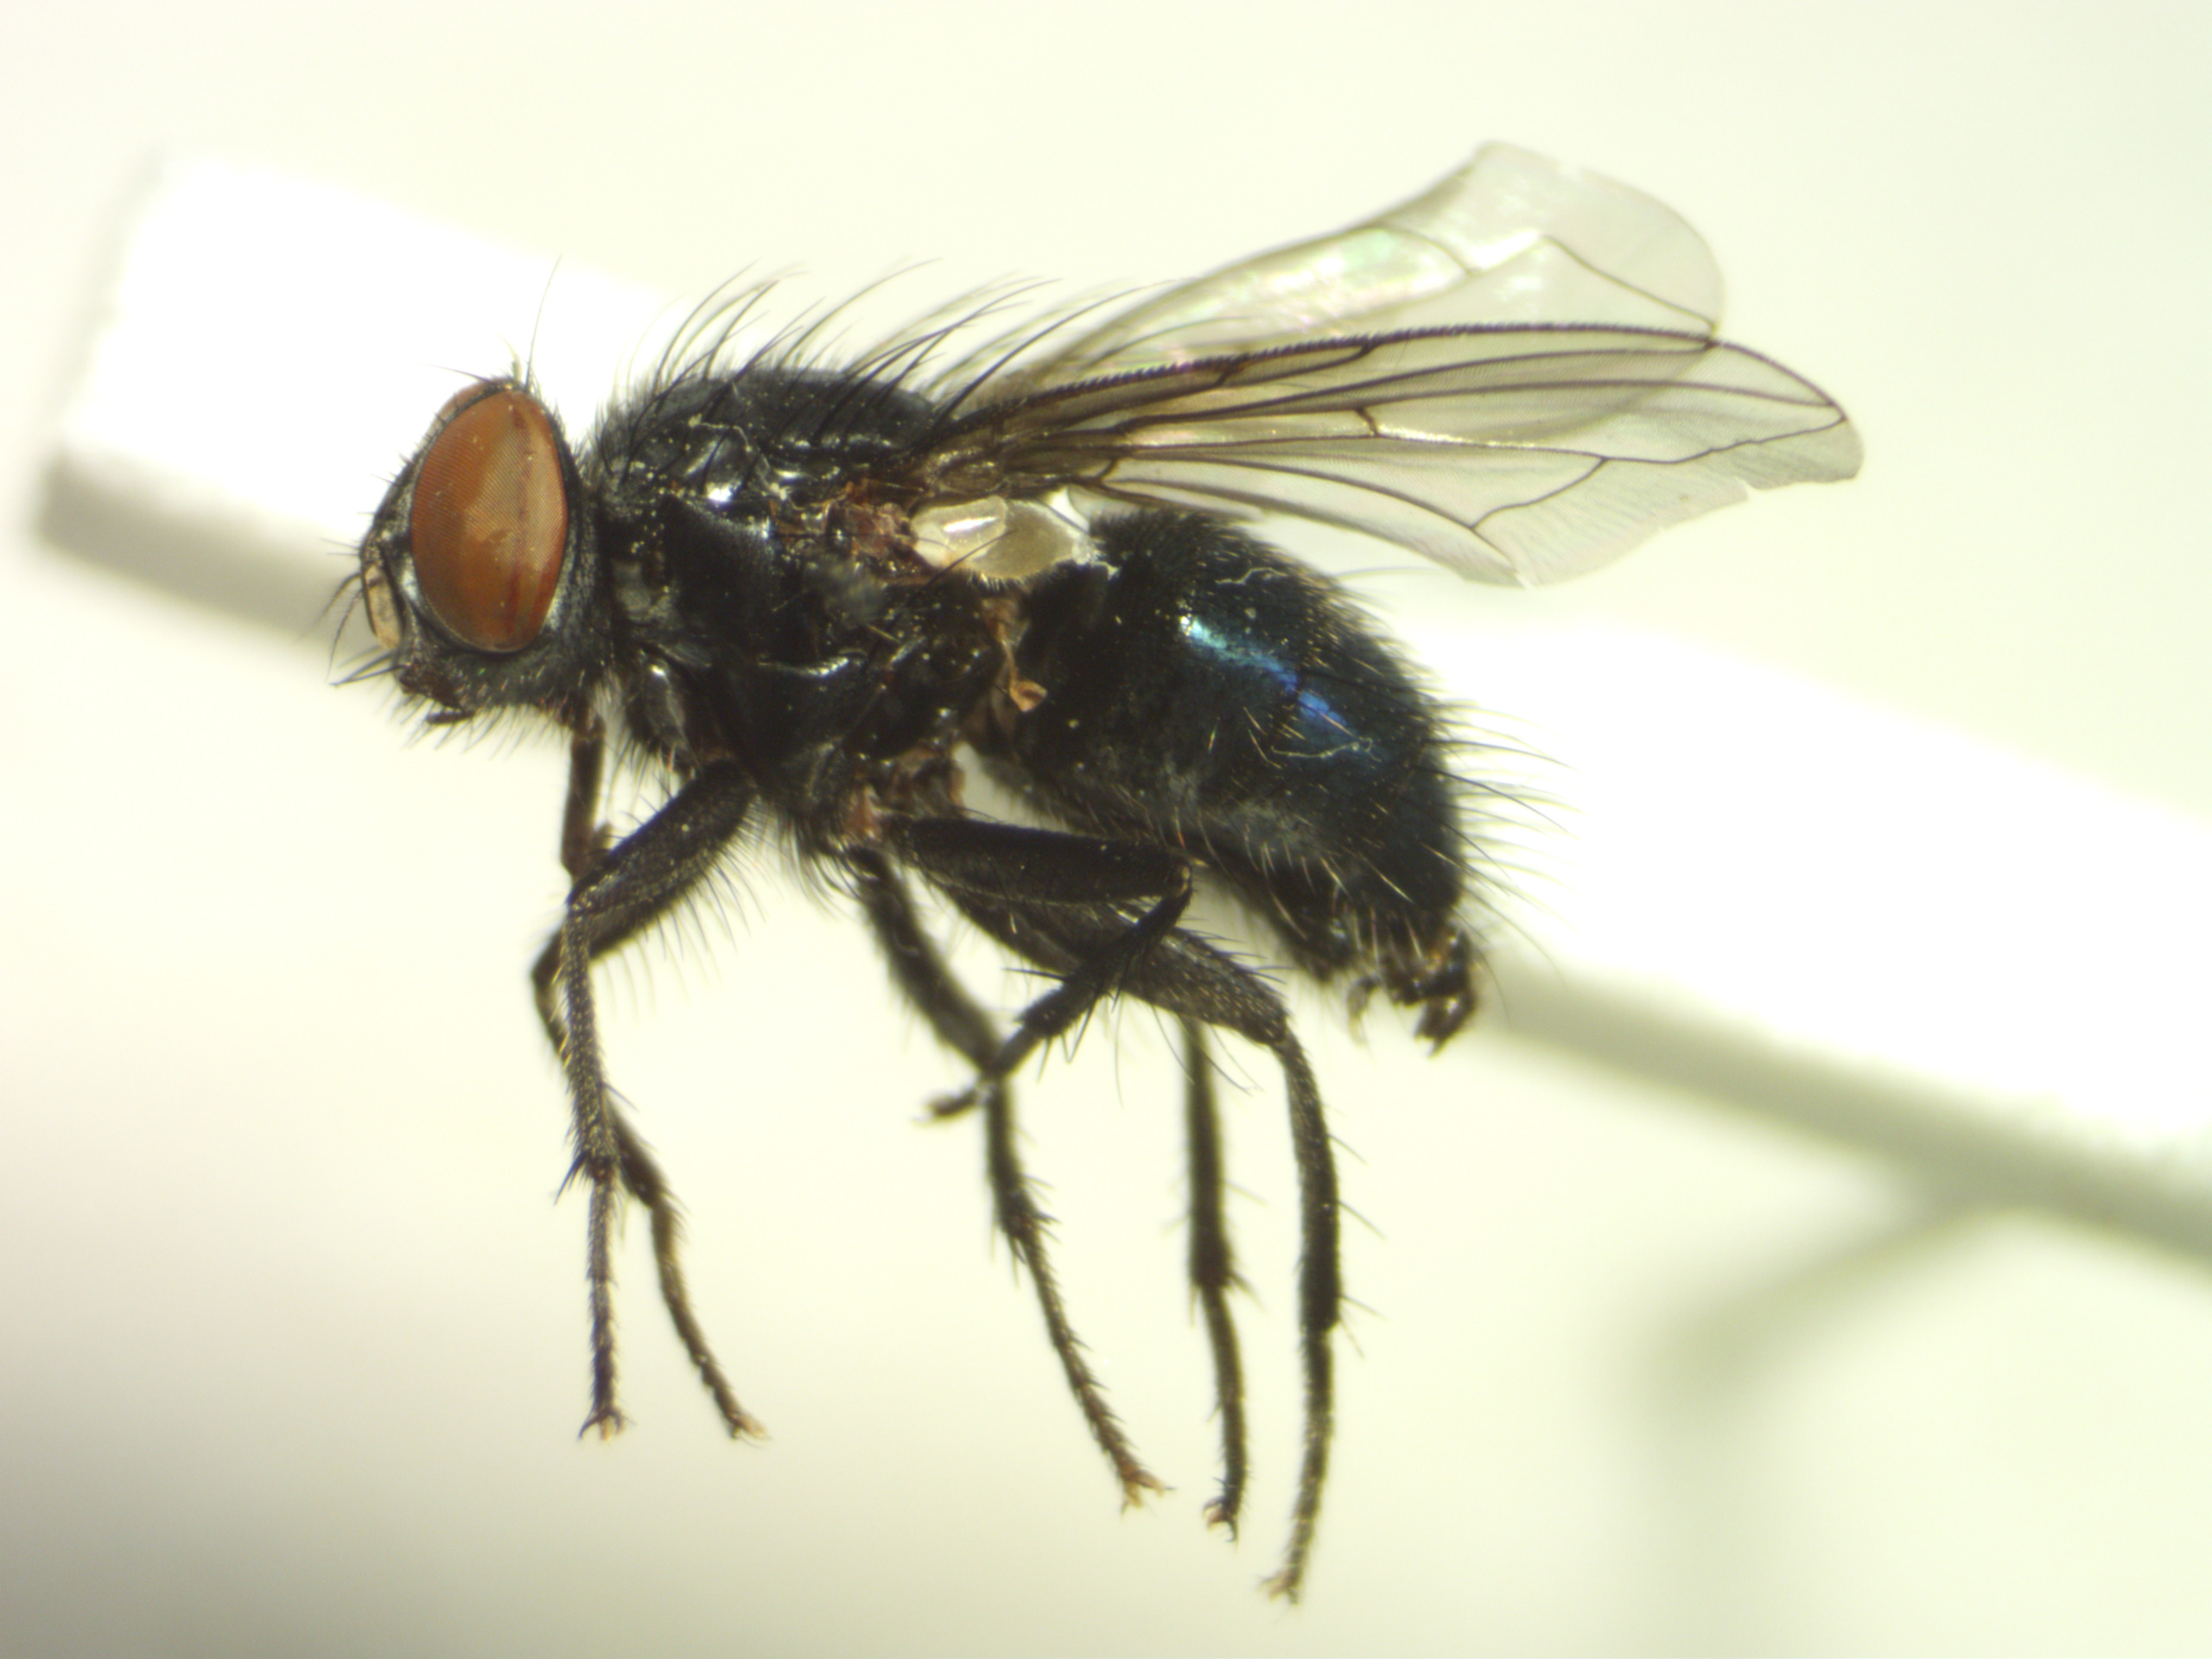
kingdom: Animalia
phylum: Arthropoda
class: Insecta
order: Diptera
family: Calliphoridae
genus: Melinda
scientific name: Melinda gentilis
